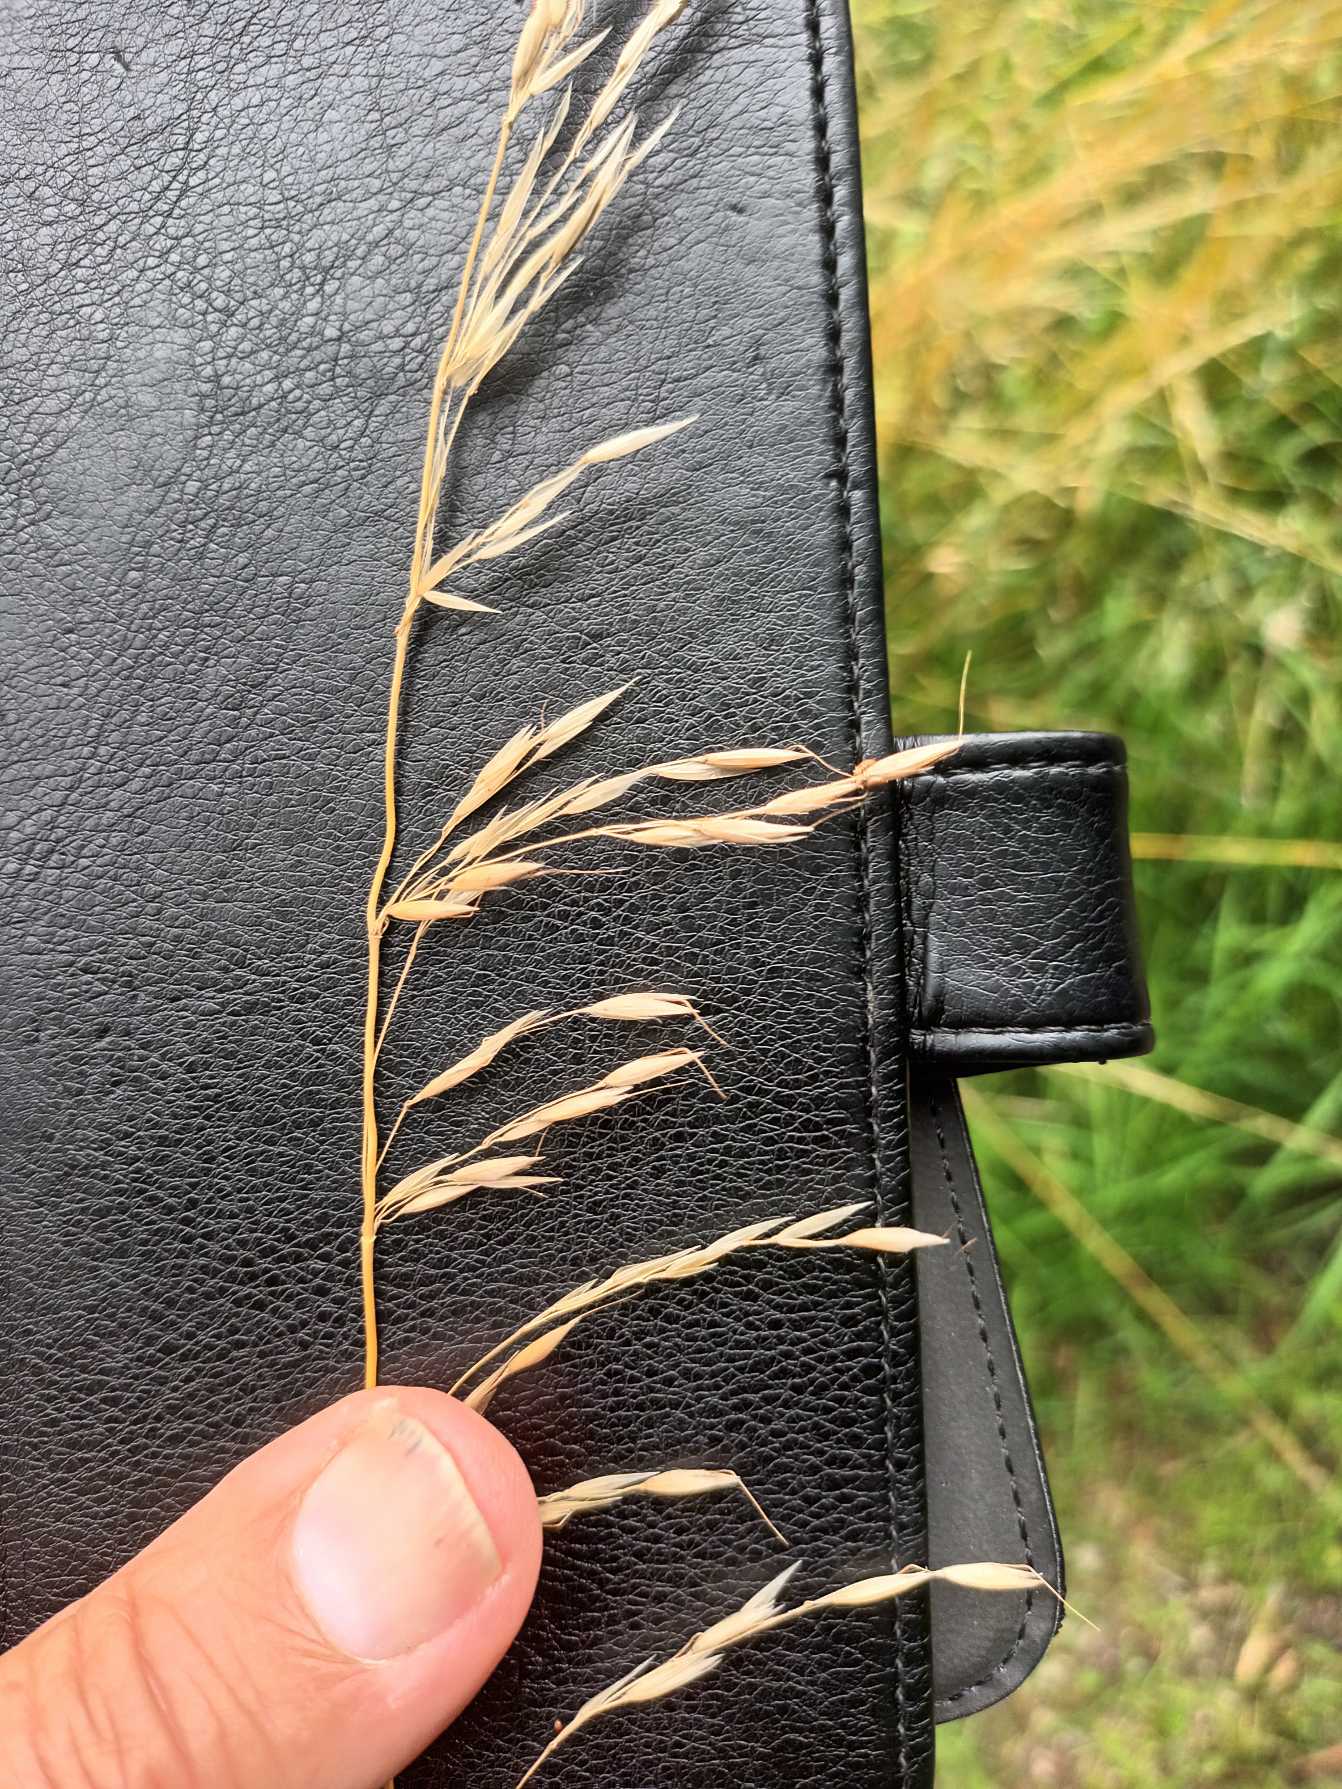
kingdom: Plantae
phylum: Tracheophyta
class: Liliopsida
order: Poales
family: Poaceae
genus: Arrhenatherum
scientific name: Arrhenatherum elatius
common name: Draphavre
